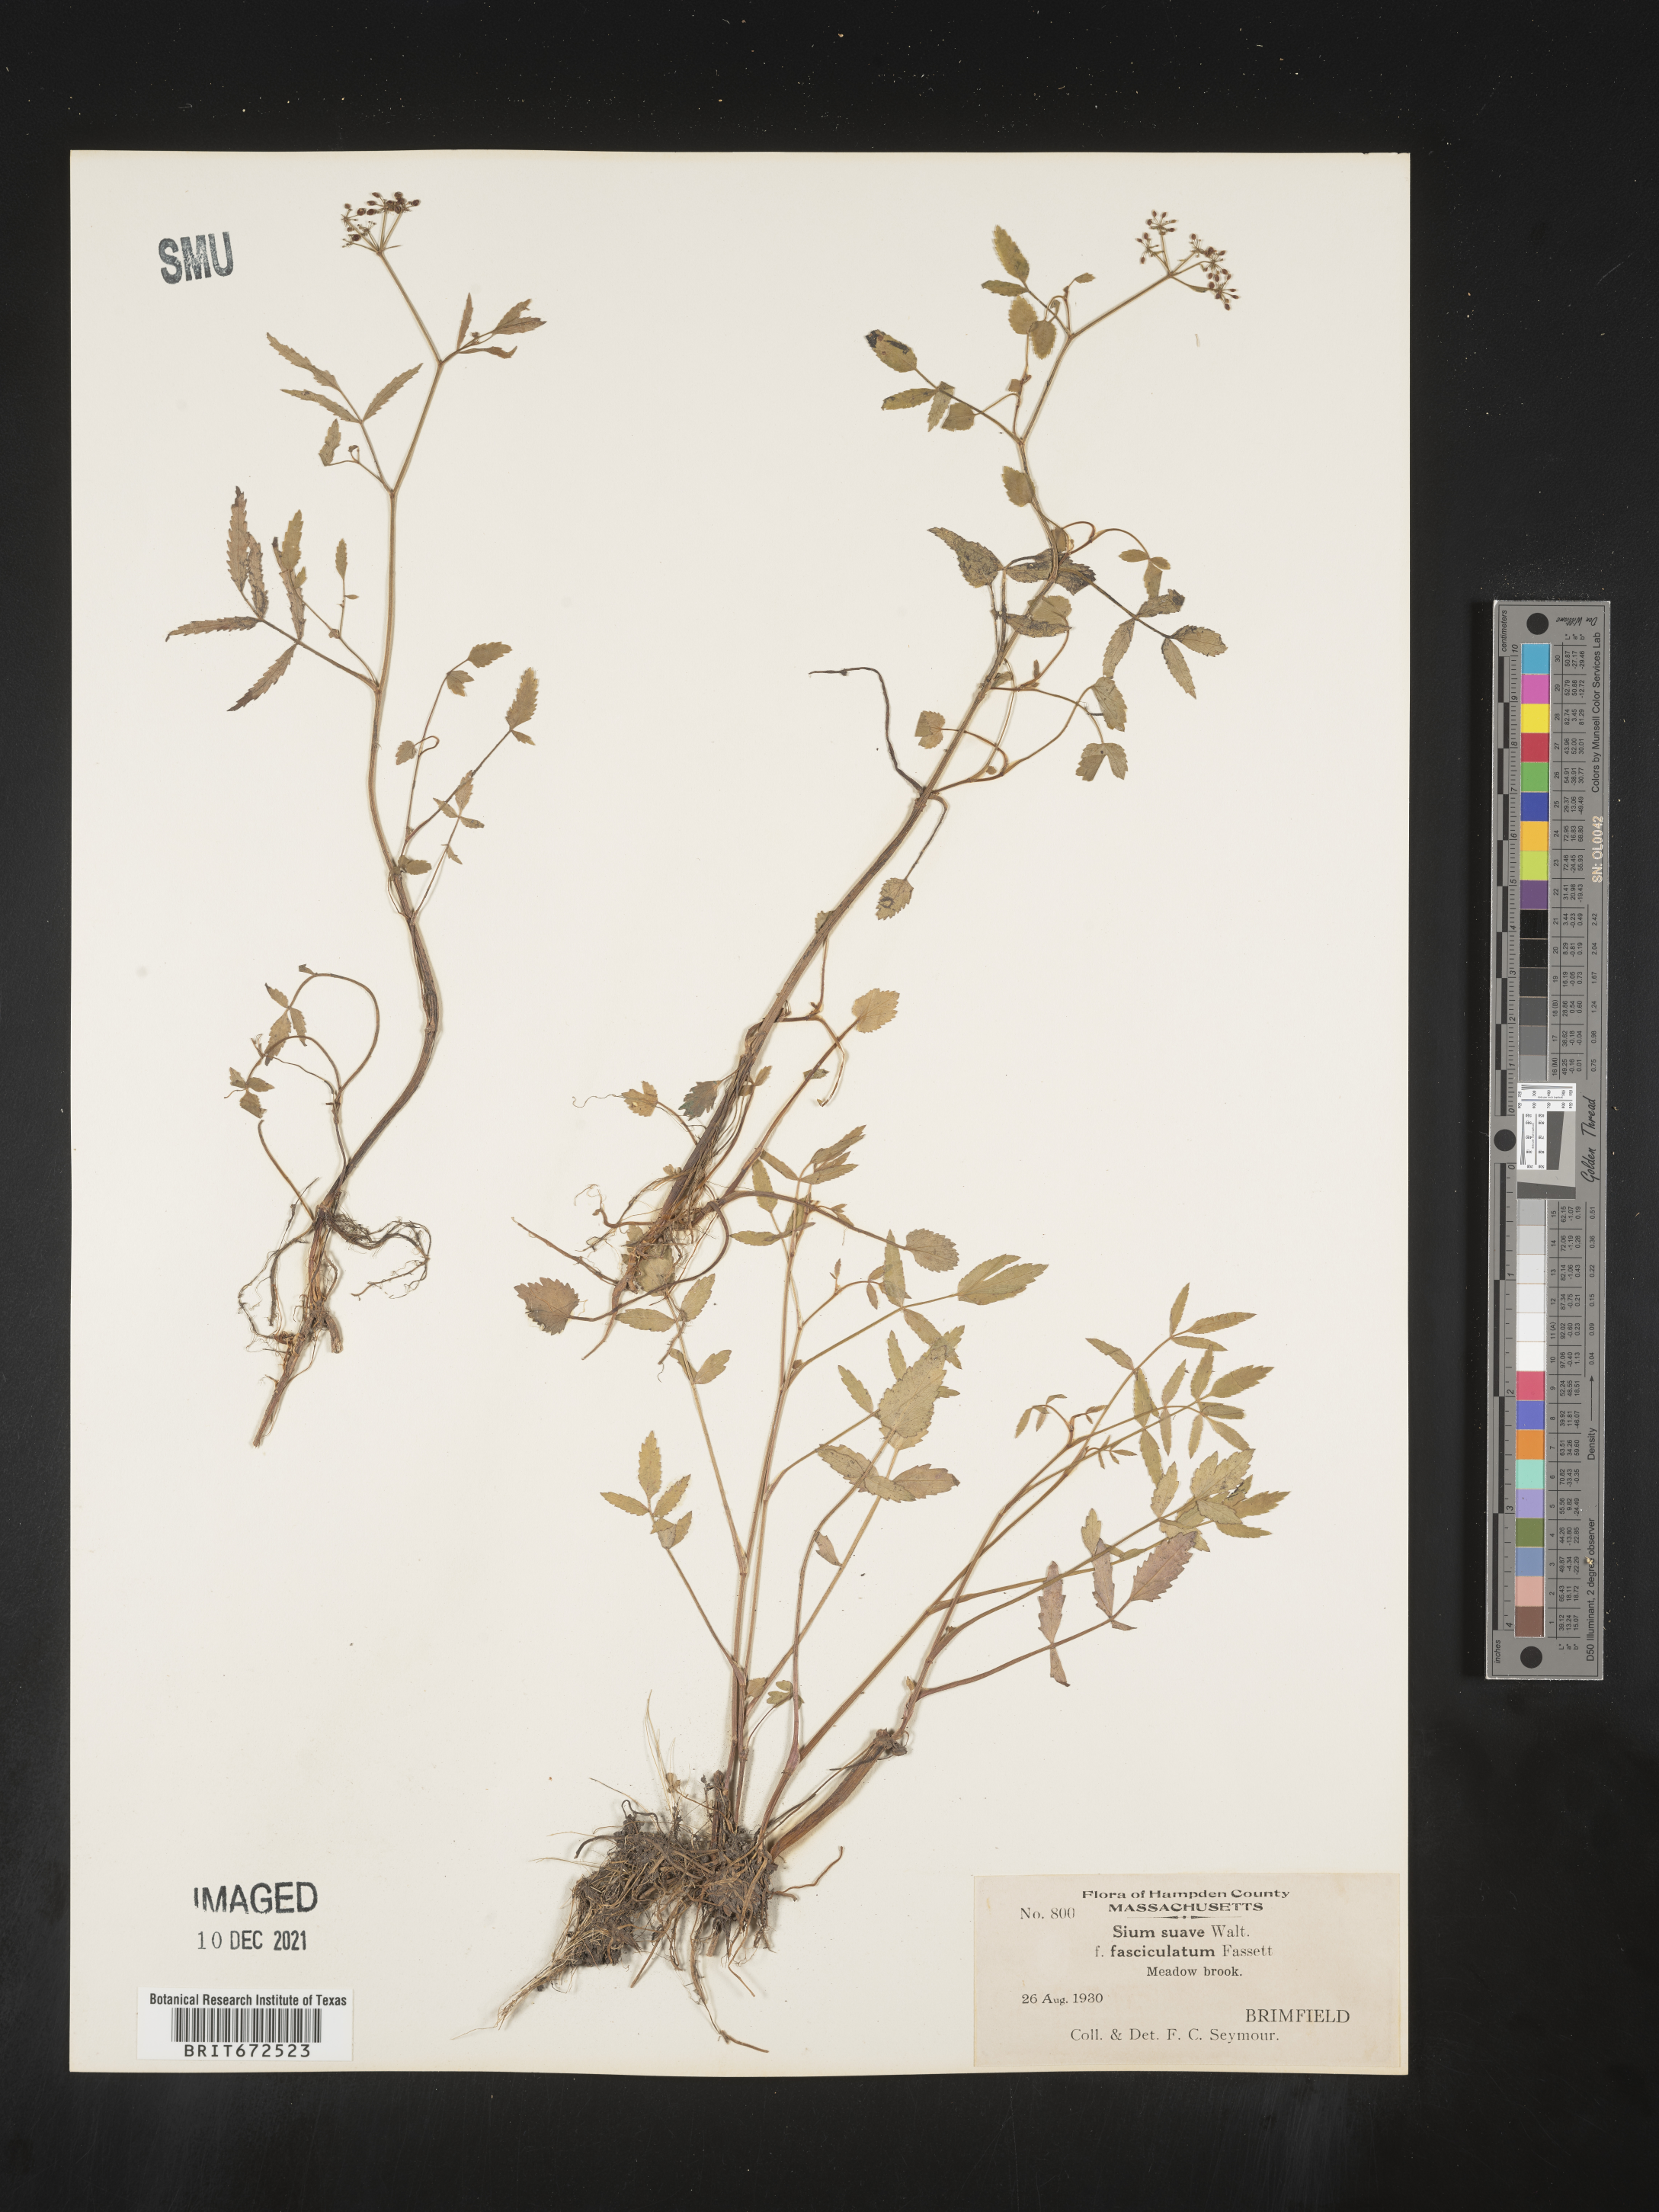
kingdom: Plantae
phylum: Tracheophyta
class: Magnoliopsida
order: Apiales
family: Apiaceae
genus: Sium
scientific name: Sium suave
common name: Hemlock water-parsnip
